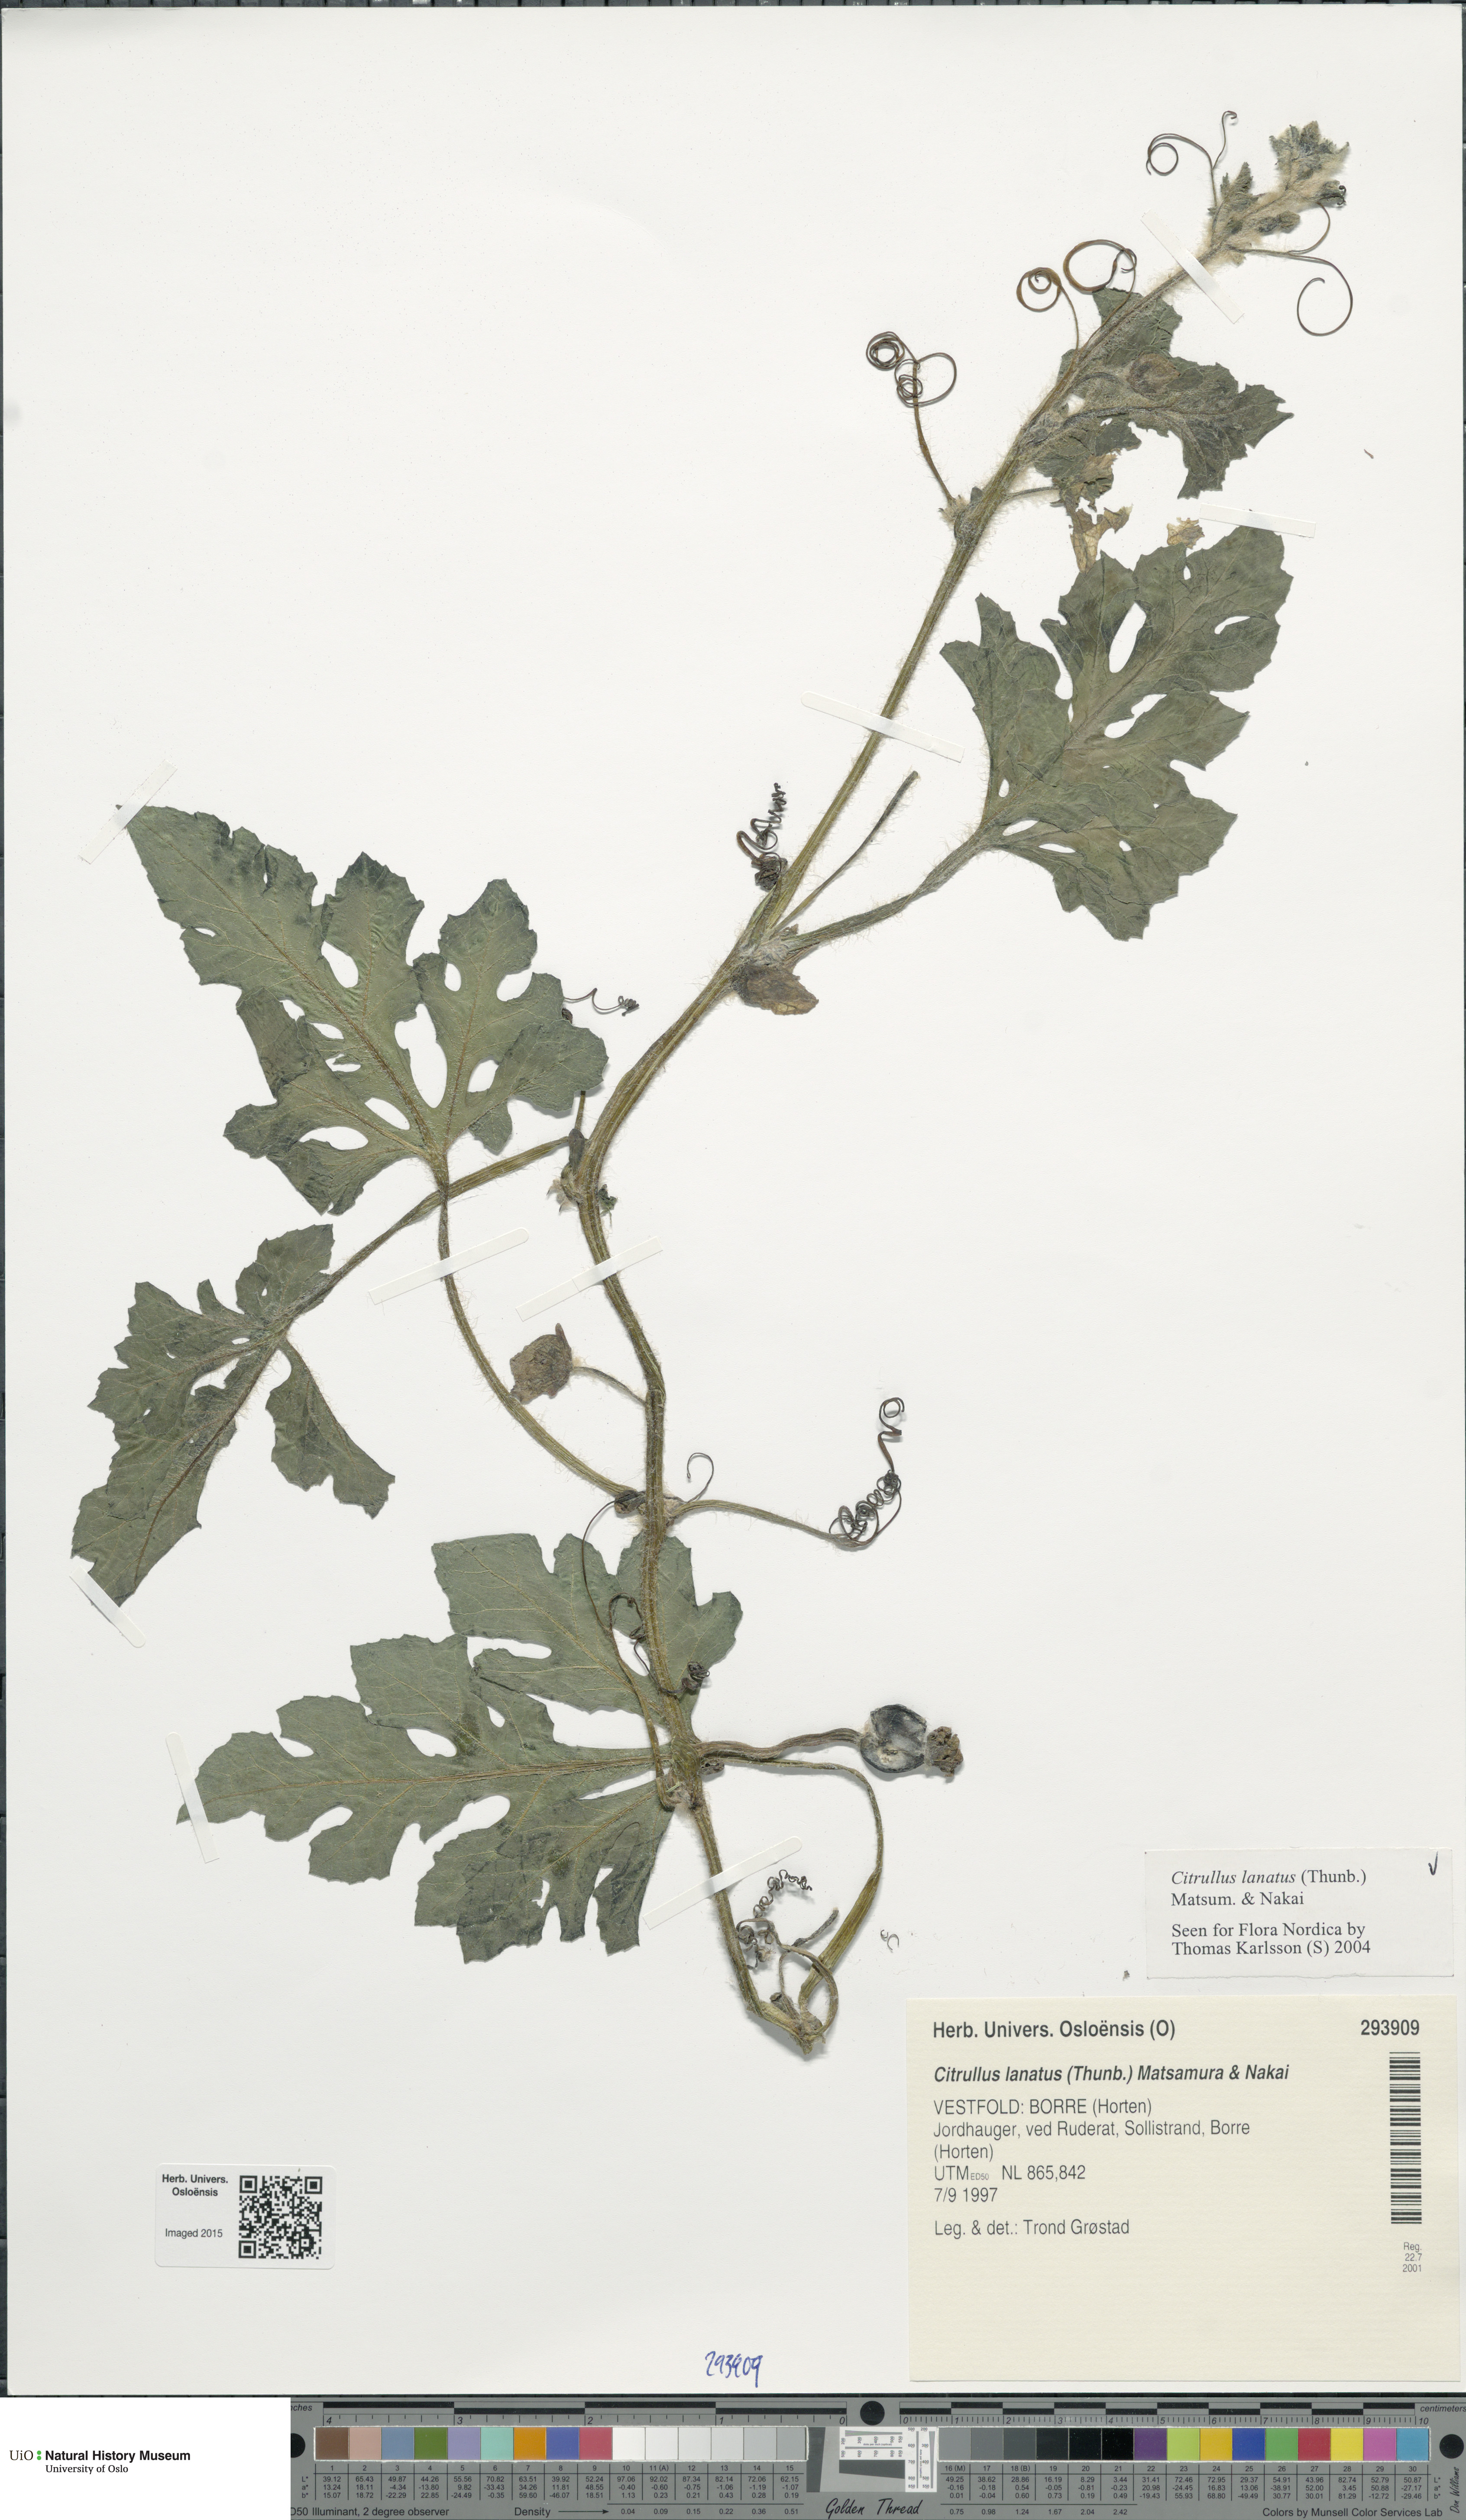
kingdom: Plantae
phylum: Tracheophyta
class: Magnoliopsida
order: Cucurbitales
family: Cucurbitaceae
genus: Citrullus
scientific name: Citrullus lanatus
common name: Watermelon
